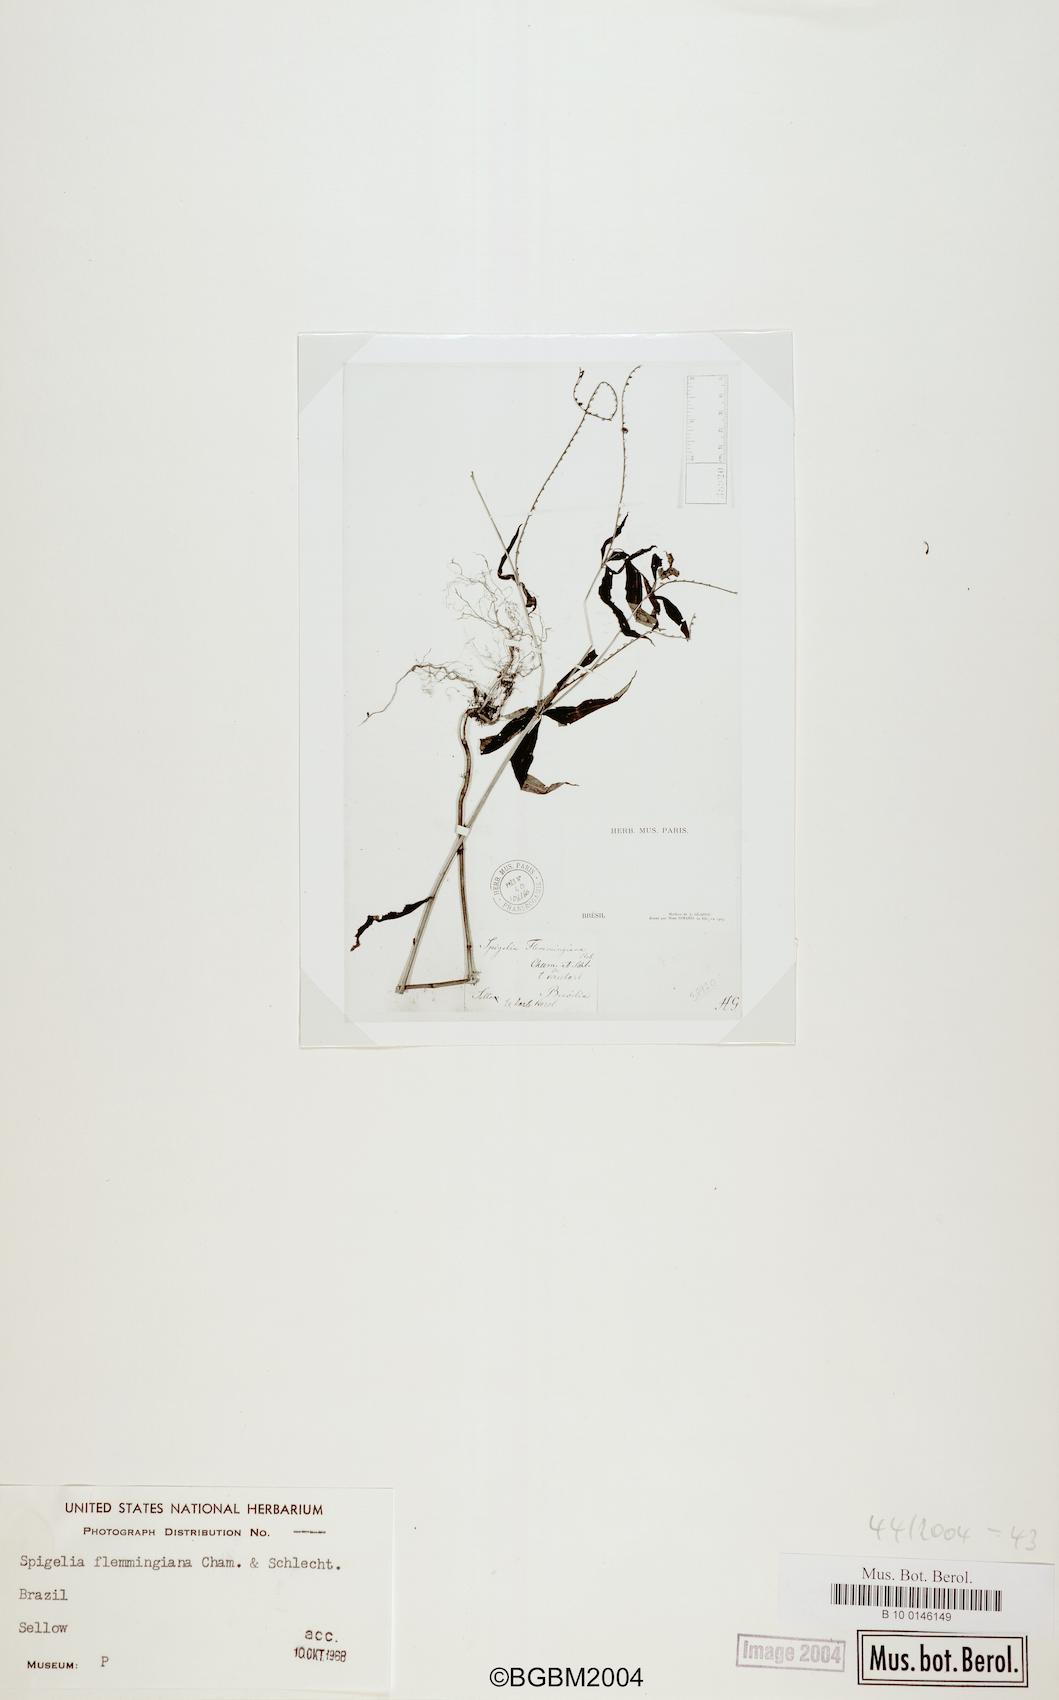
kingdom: Plantae
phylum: Tracheophyta
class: Magnoliopsida
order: Gentianales
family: Loganiaceae
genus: Spigelia
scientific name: Spigelia flemmingiana
